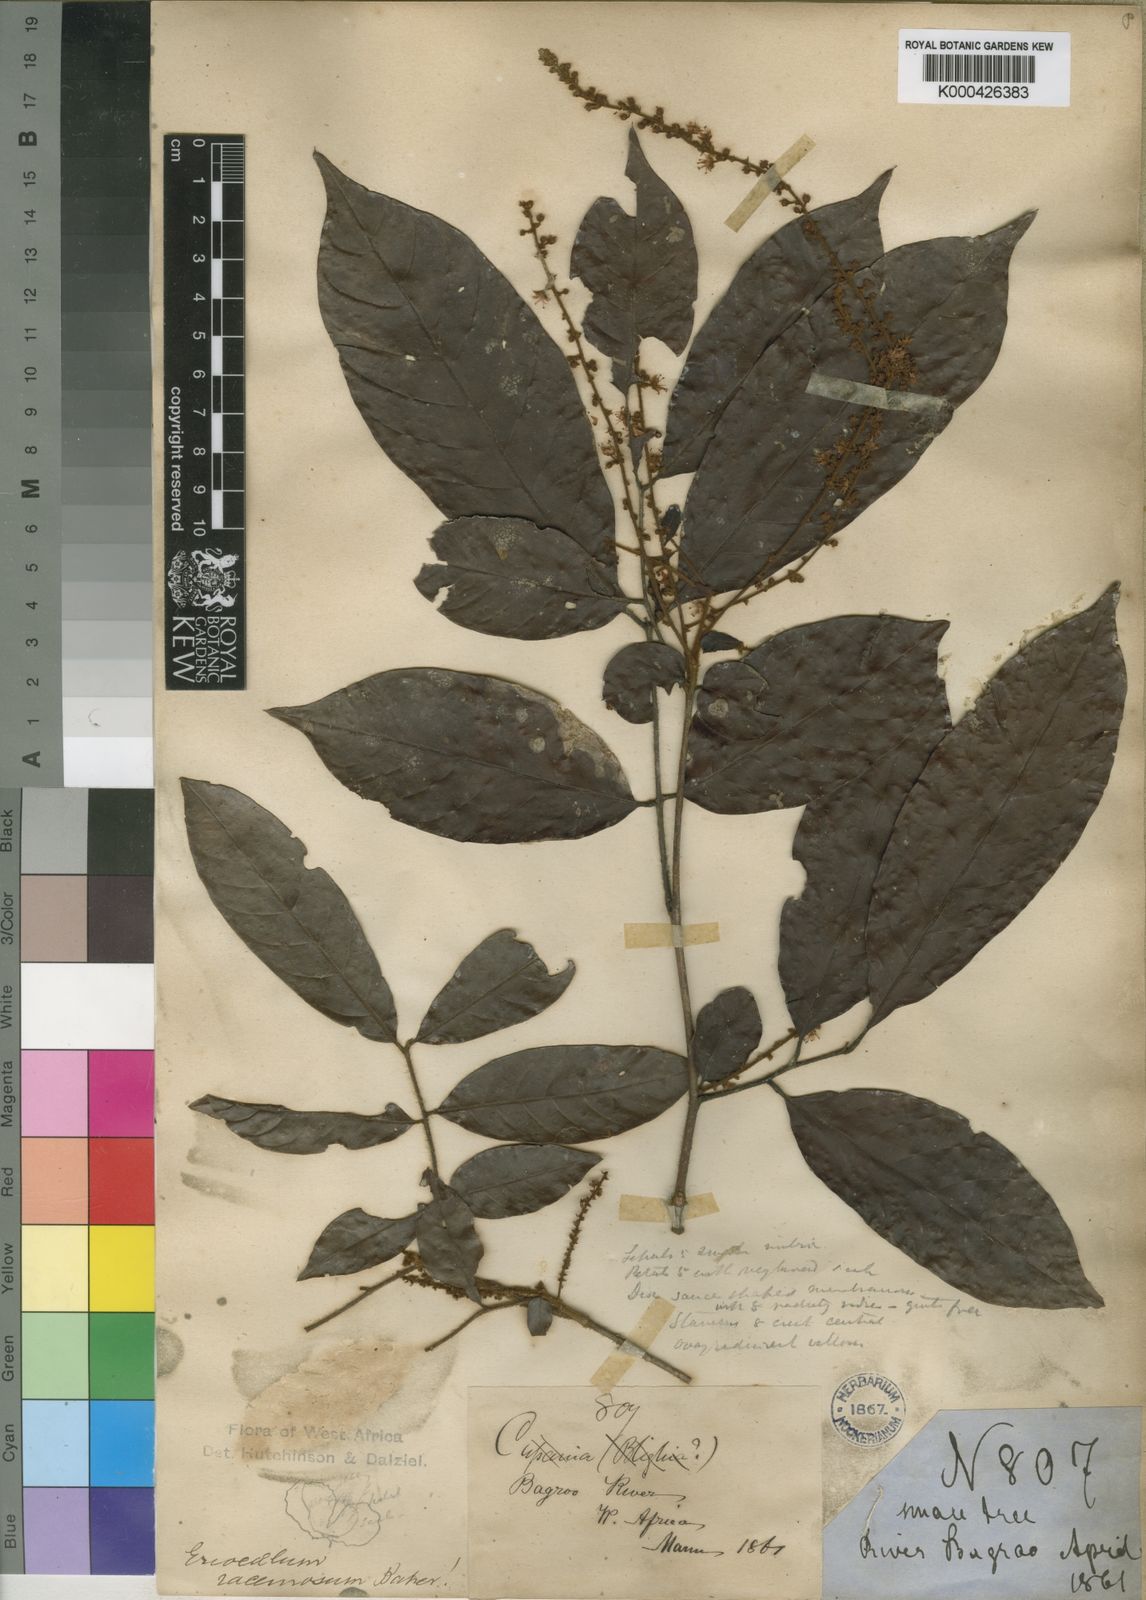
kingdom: Plantae
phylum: Tracheophyta
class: Magnoliopsida
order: Sapindales
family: Sapindaceae
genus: Eriocoelum
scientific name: Eriocoelum racemosum
